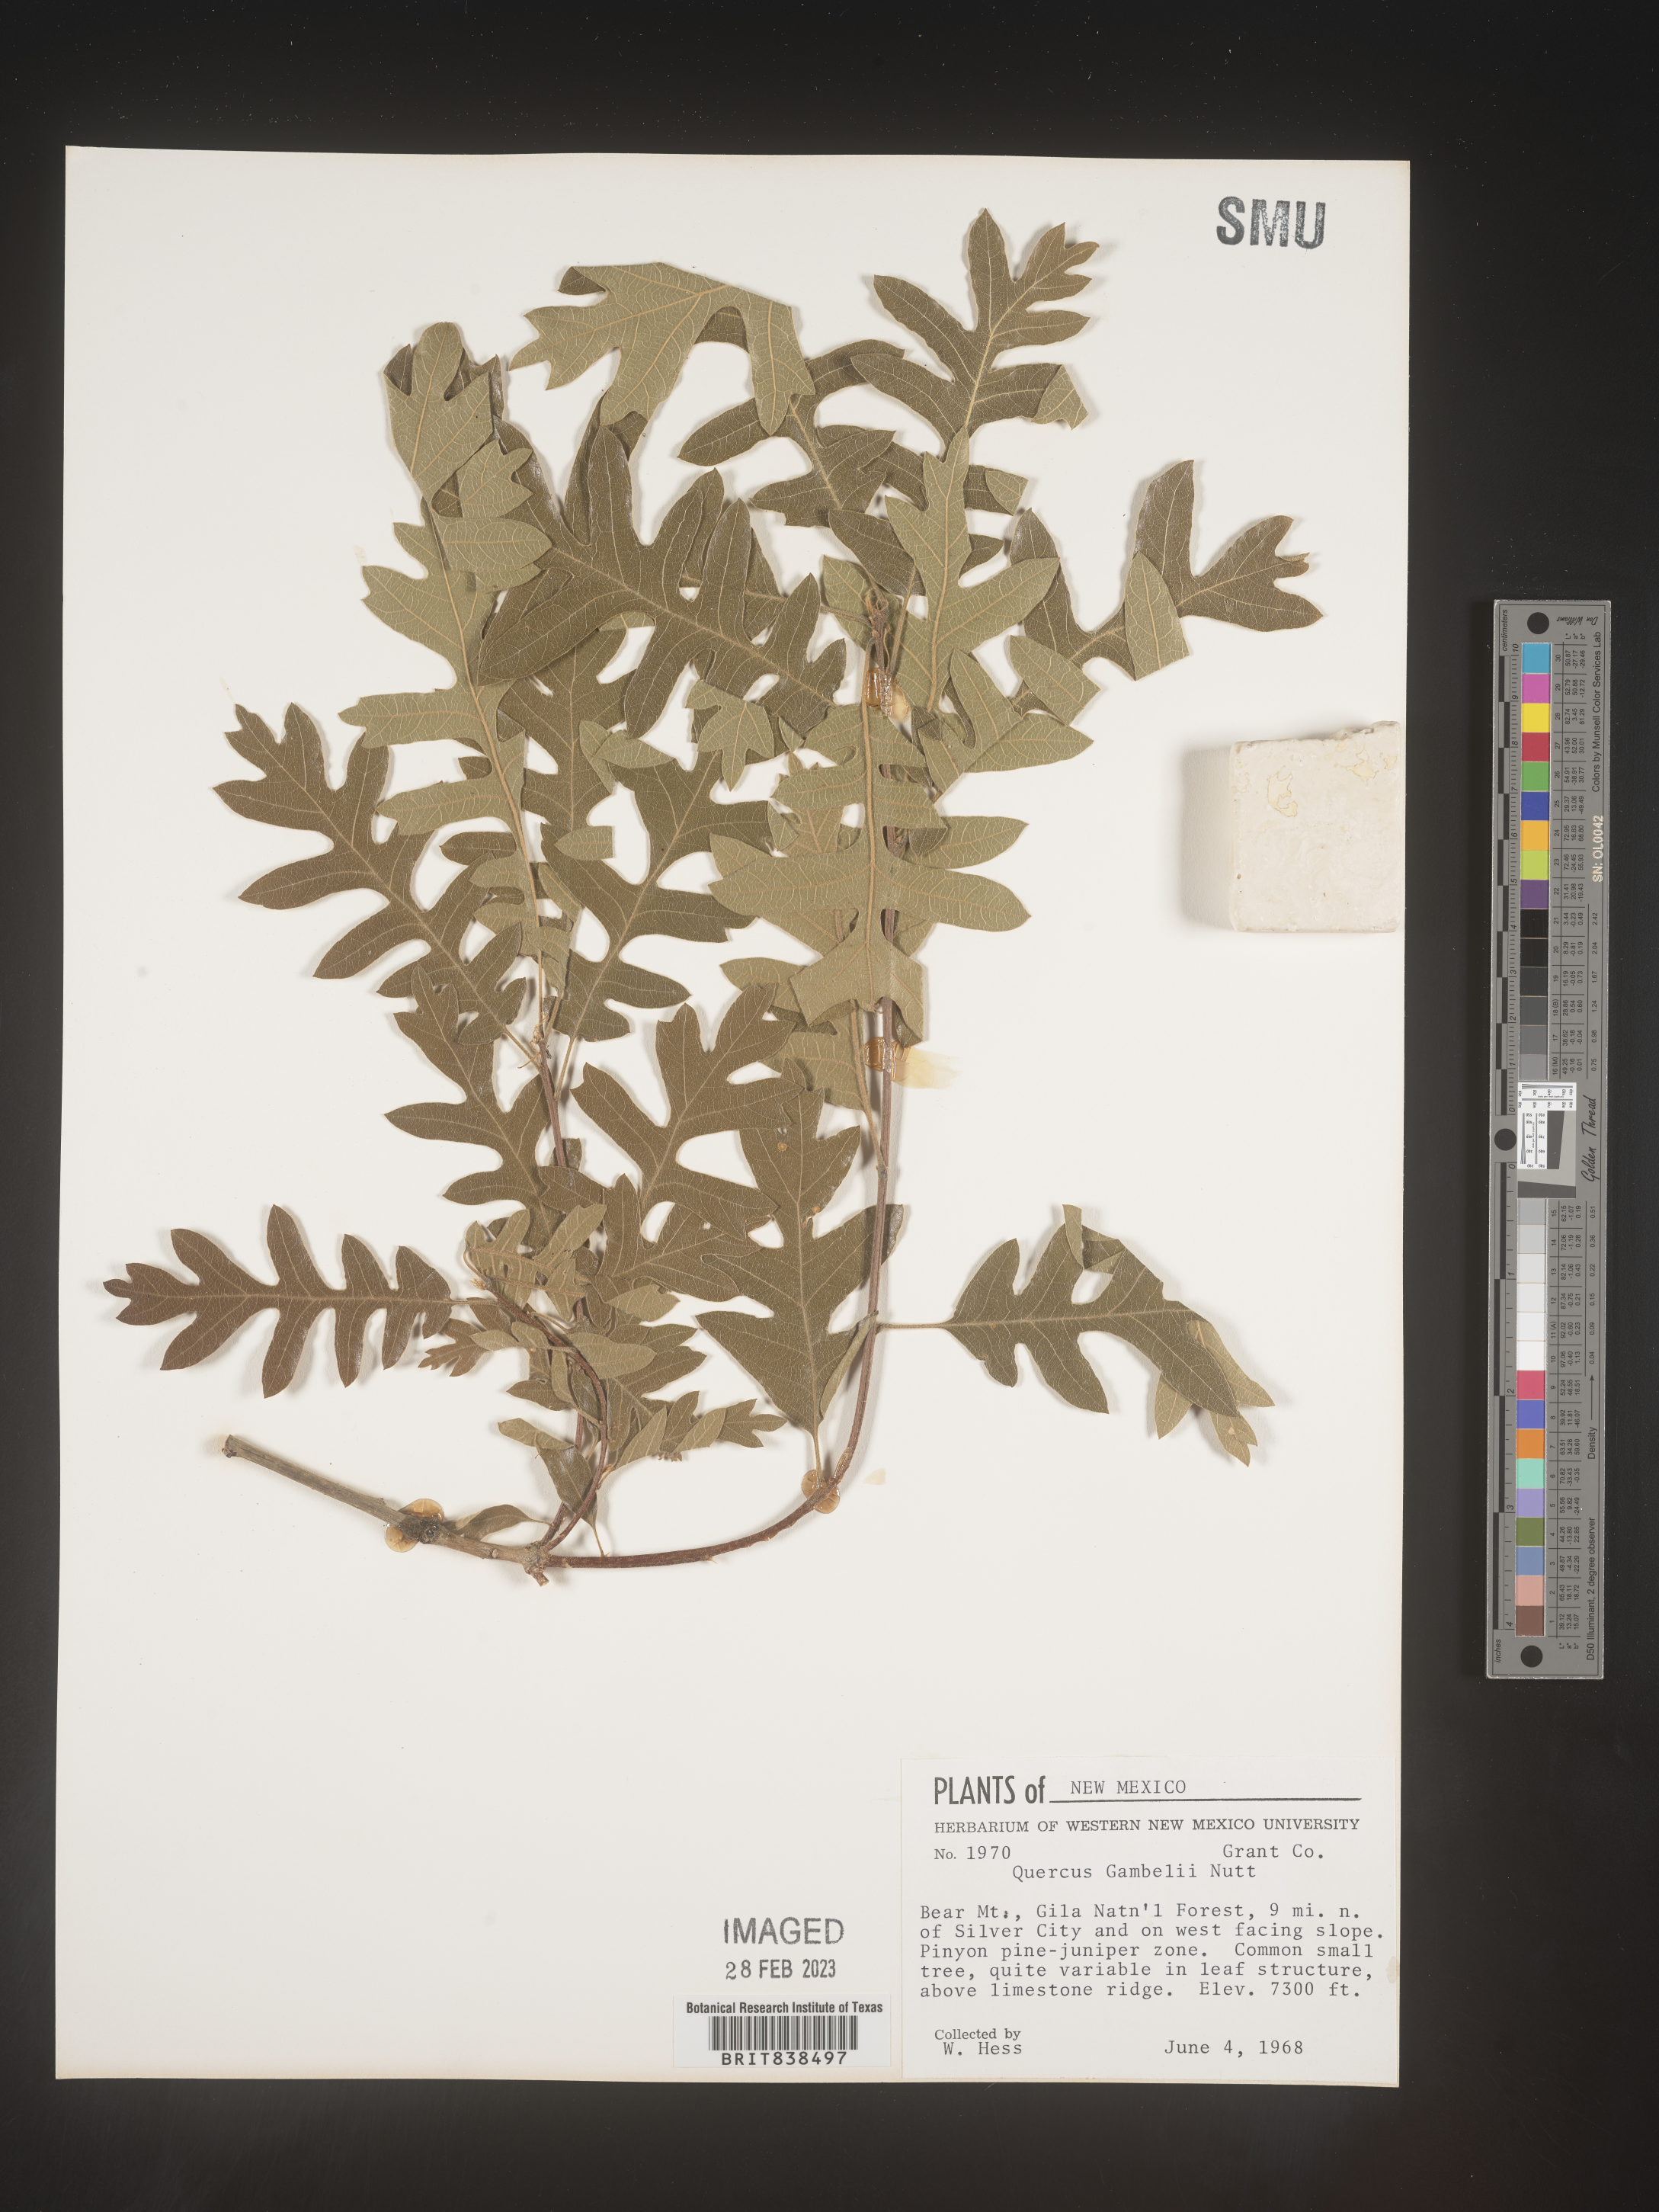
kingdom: Plantae
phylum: Tracheophyta
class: Magnoliopsida
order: Fagales
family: Fagaceae
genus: Quercus
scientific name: Quercus gambelii
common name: Gambel oak
